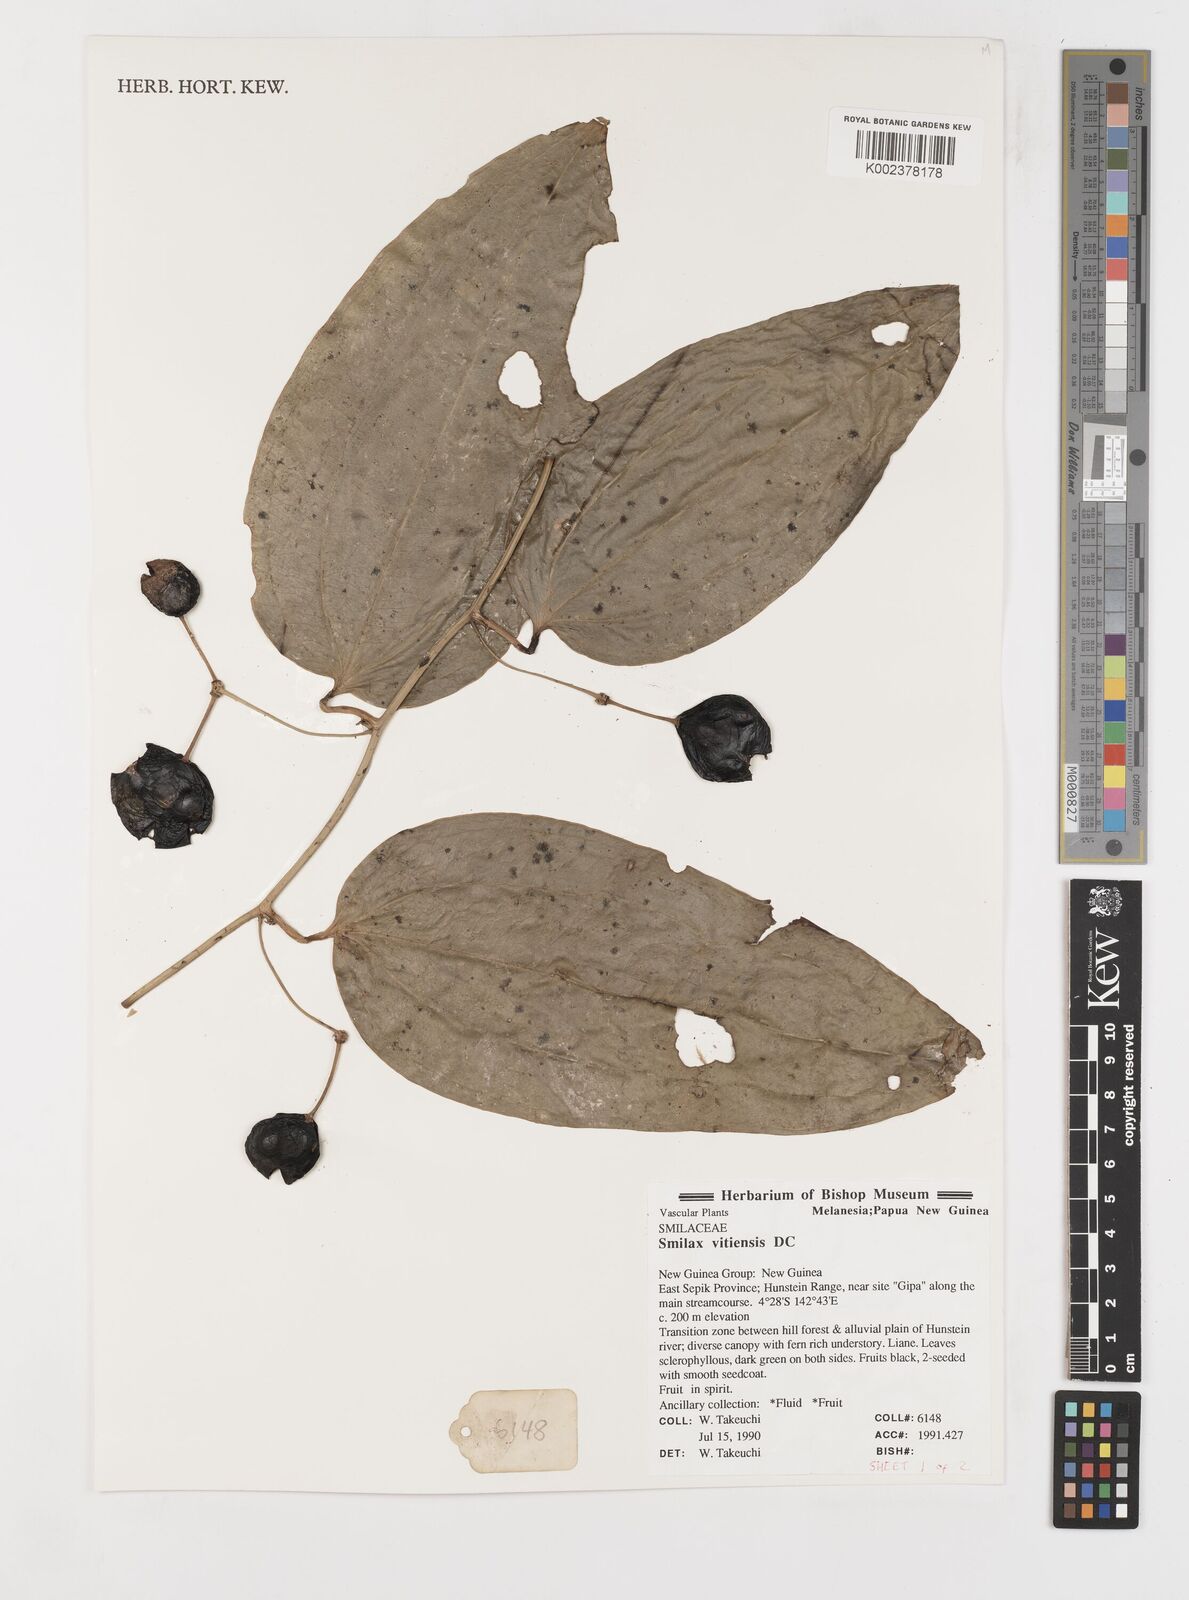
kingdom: Plantae
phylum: Tracheophyta
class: Liliopsida
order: Liliales
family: Smilacaceae
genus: Smilax
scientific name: Smilax vitiensis
